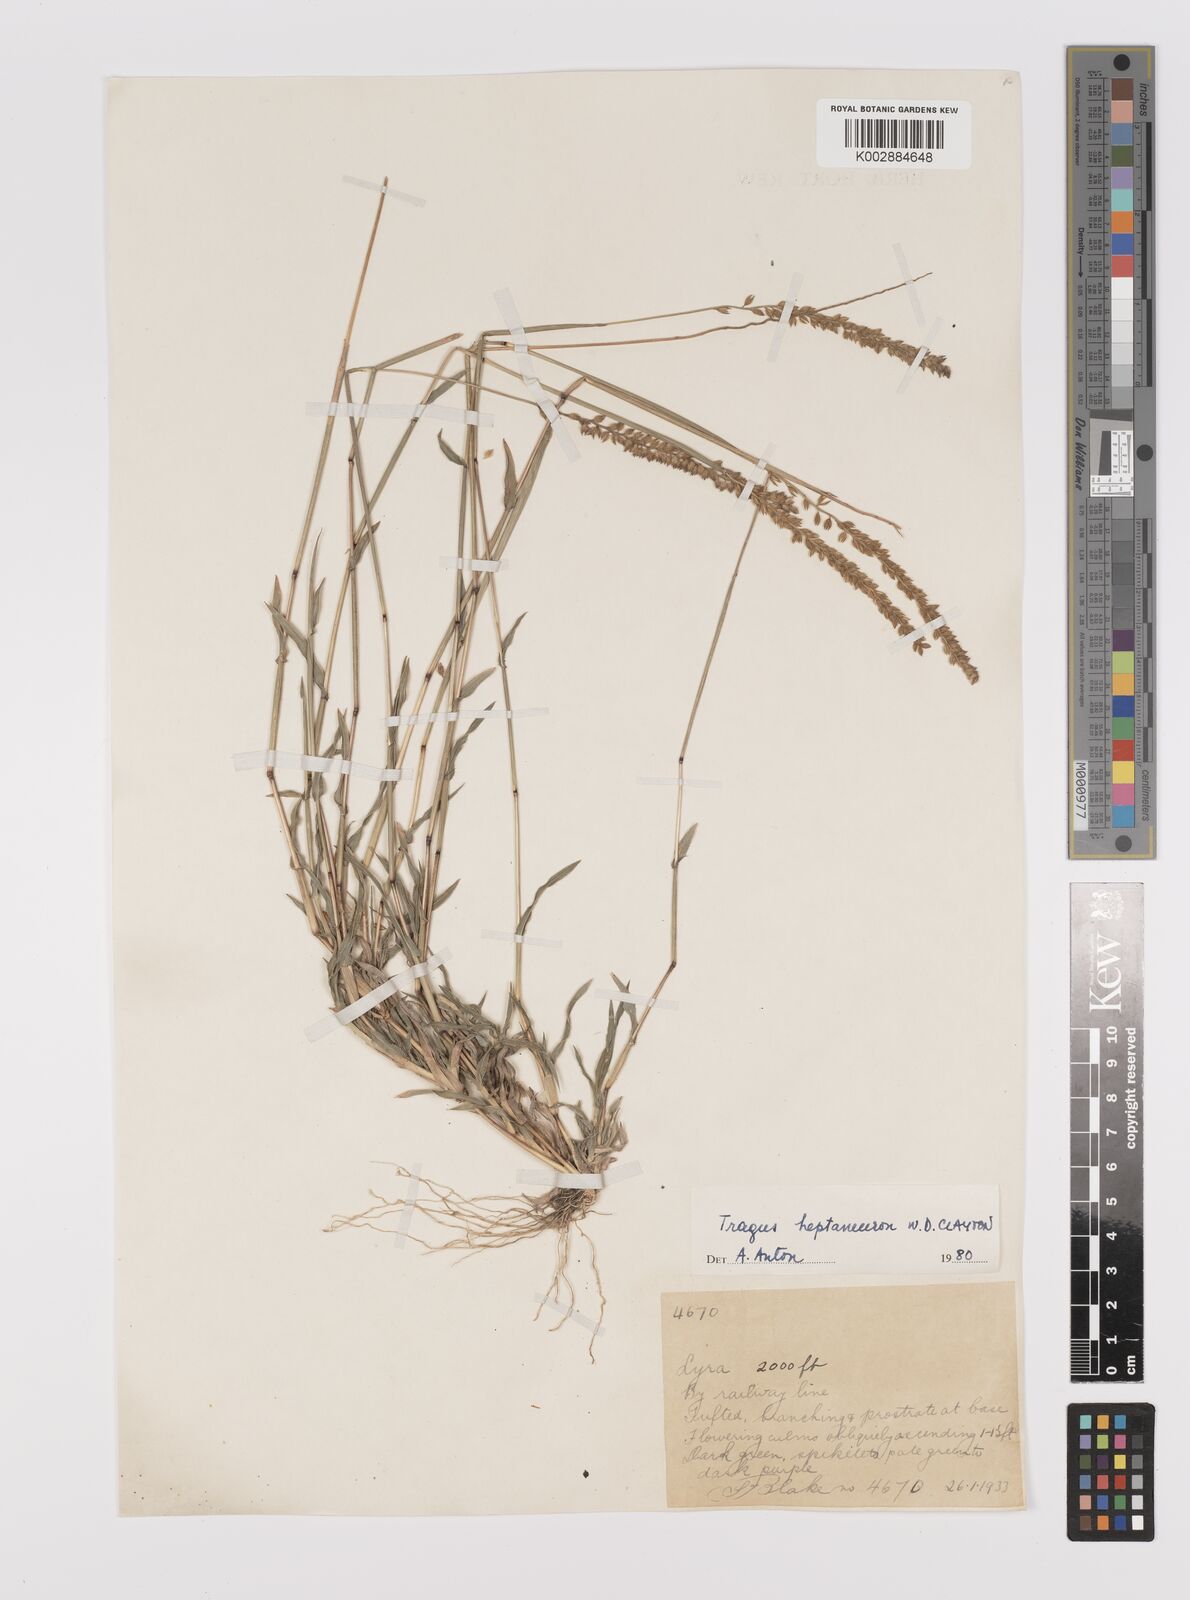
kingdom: Plantae
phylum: Tracheophyta
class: Liliopsida
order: Poales
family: Poaceae
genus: Tragus
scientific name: Tragus australianus
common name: Australian bur-grass
